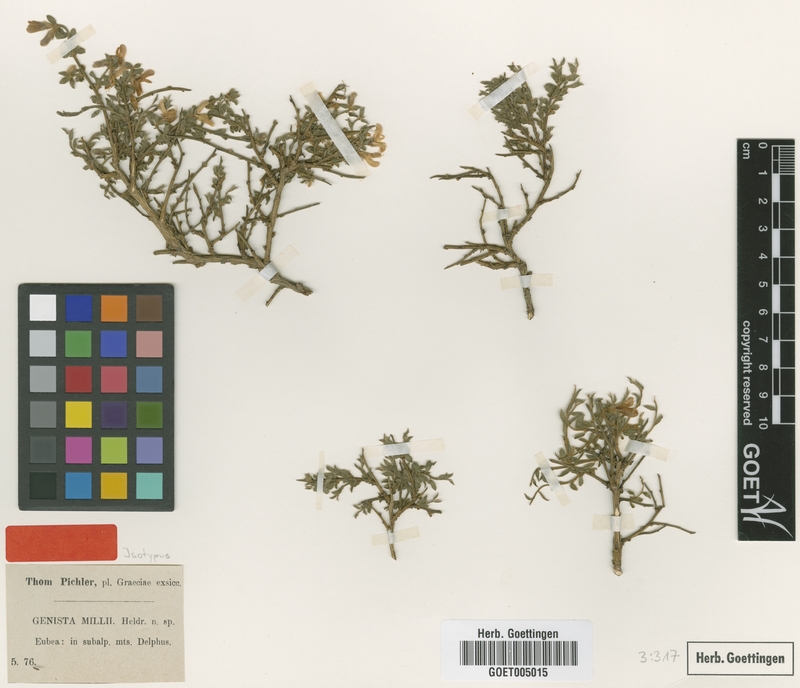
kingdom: Plantae
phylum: Tracheophyta
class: Magnoliopsida
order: Fabales
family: Fabaceae
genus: Genista
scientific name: Genista millii
